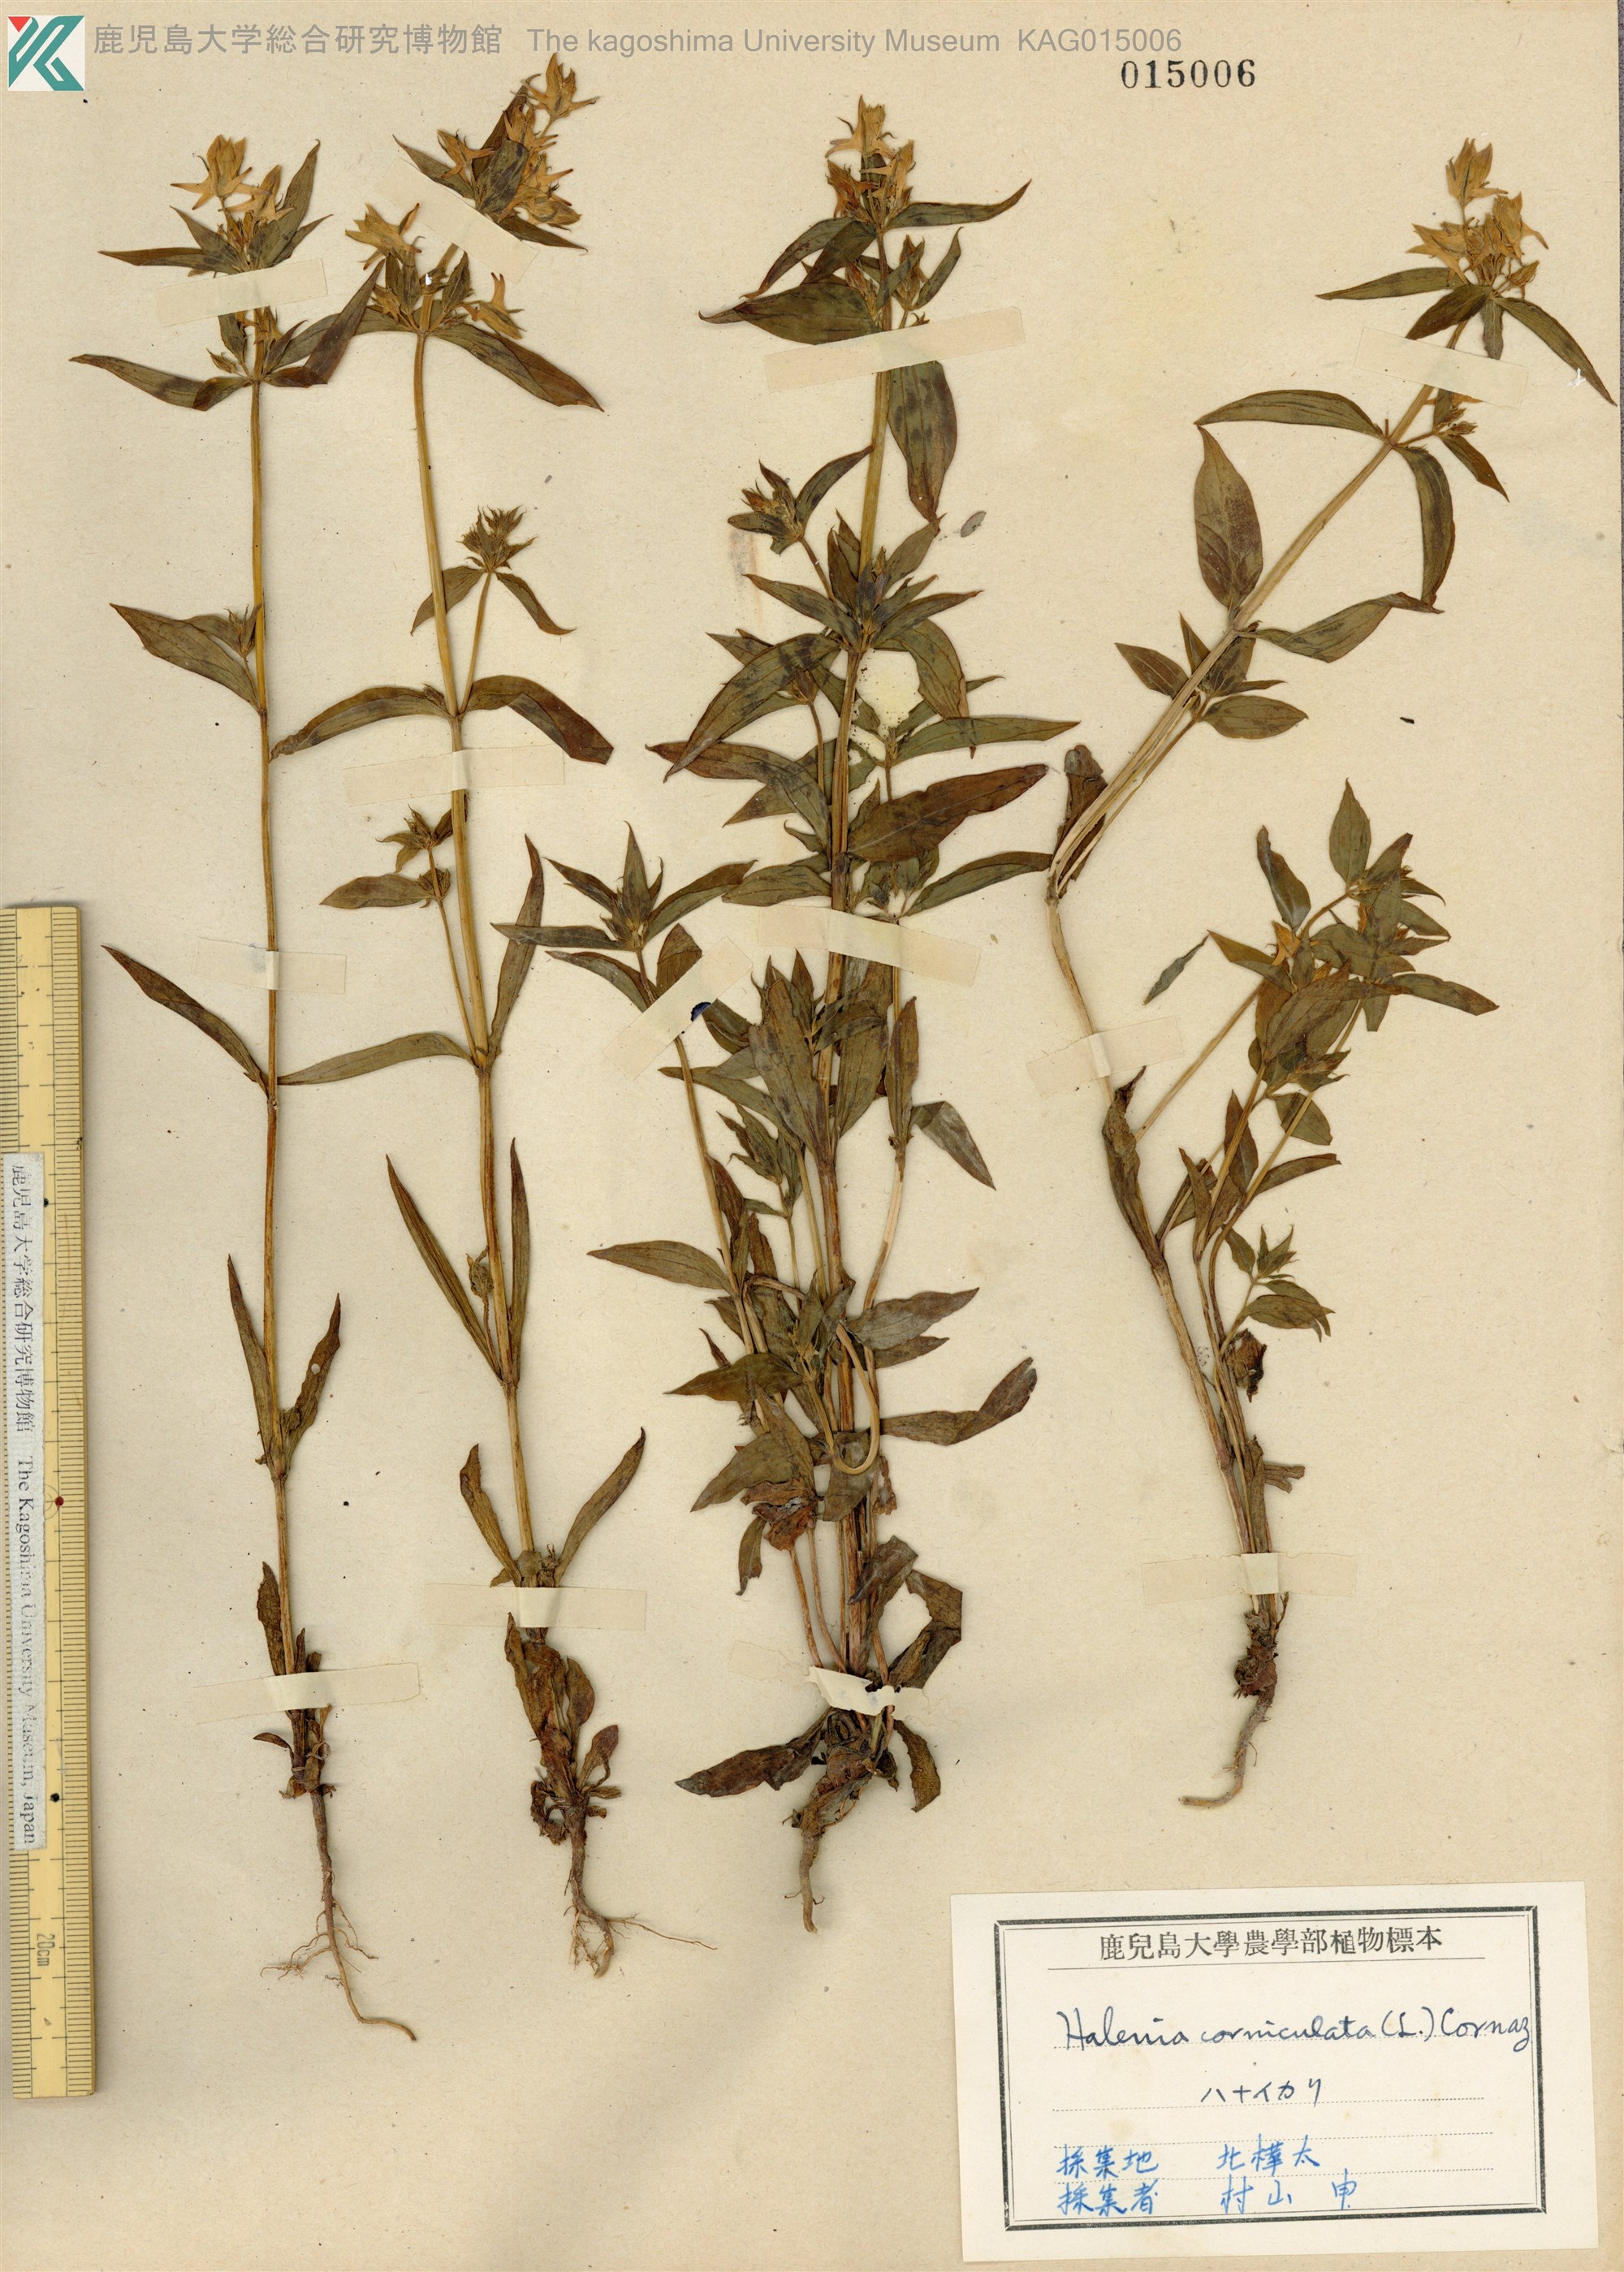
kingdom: Plantae
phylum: Tracheophyta
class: Magnoliopsida
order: Gentianales
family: Gentianaceae
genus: Halenia
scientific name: Halenia corniculata
